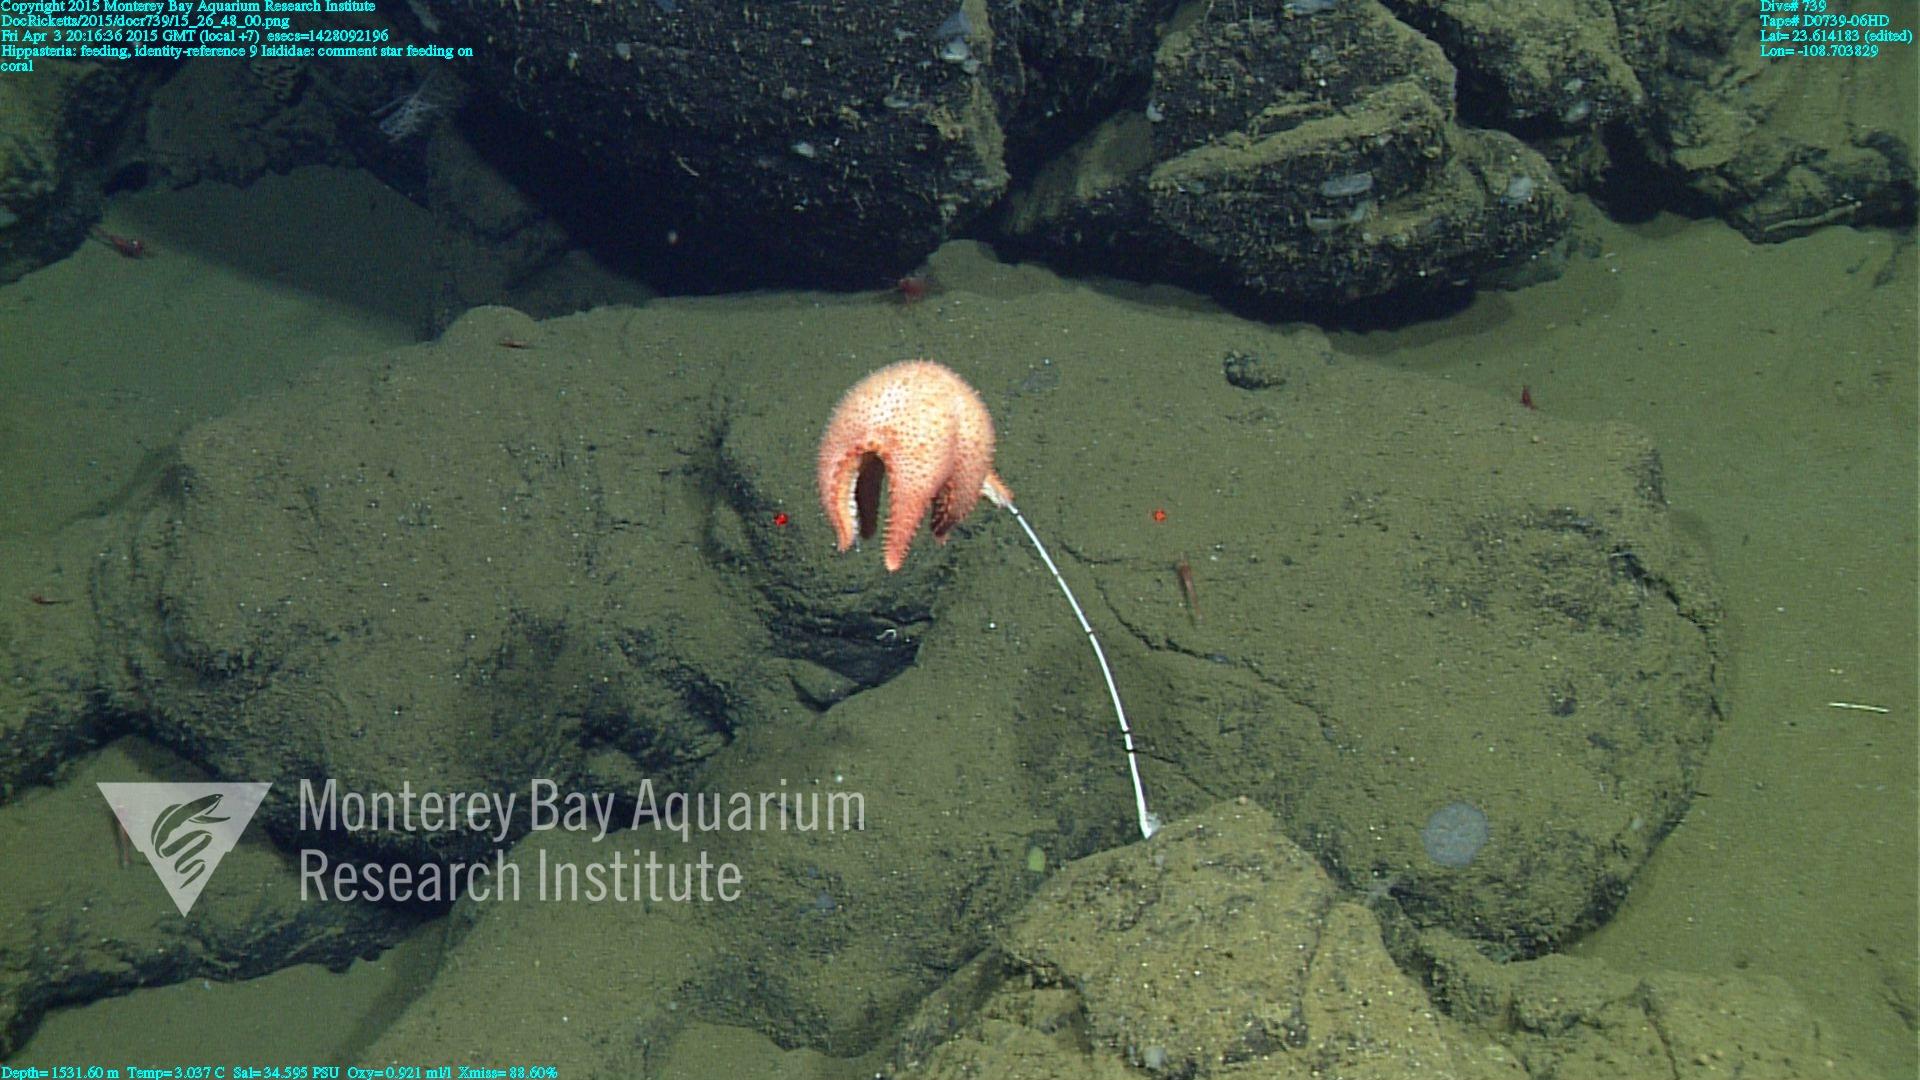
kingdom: Animalia
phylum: Cnidaria
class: Anthozoa
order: Scleralcyonacea
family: Keratoisididae
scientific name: Keratoisididae
